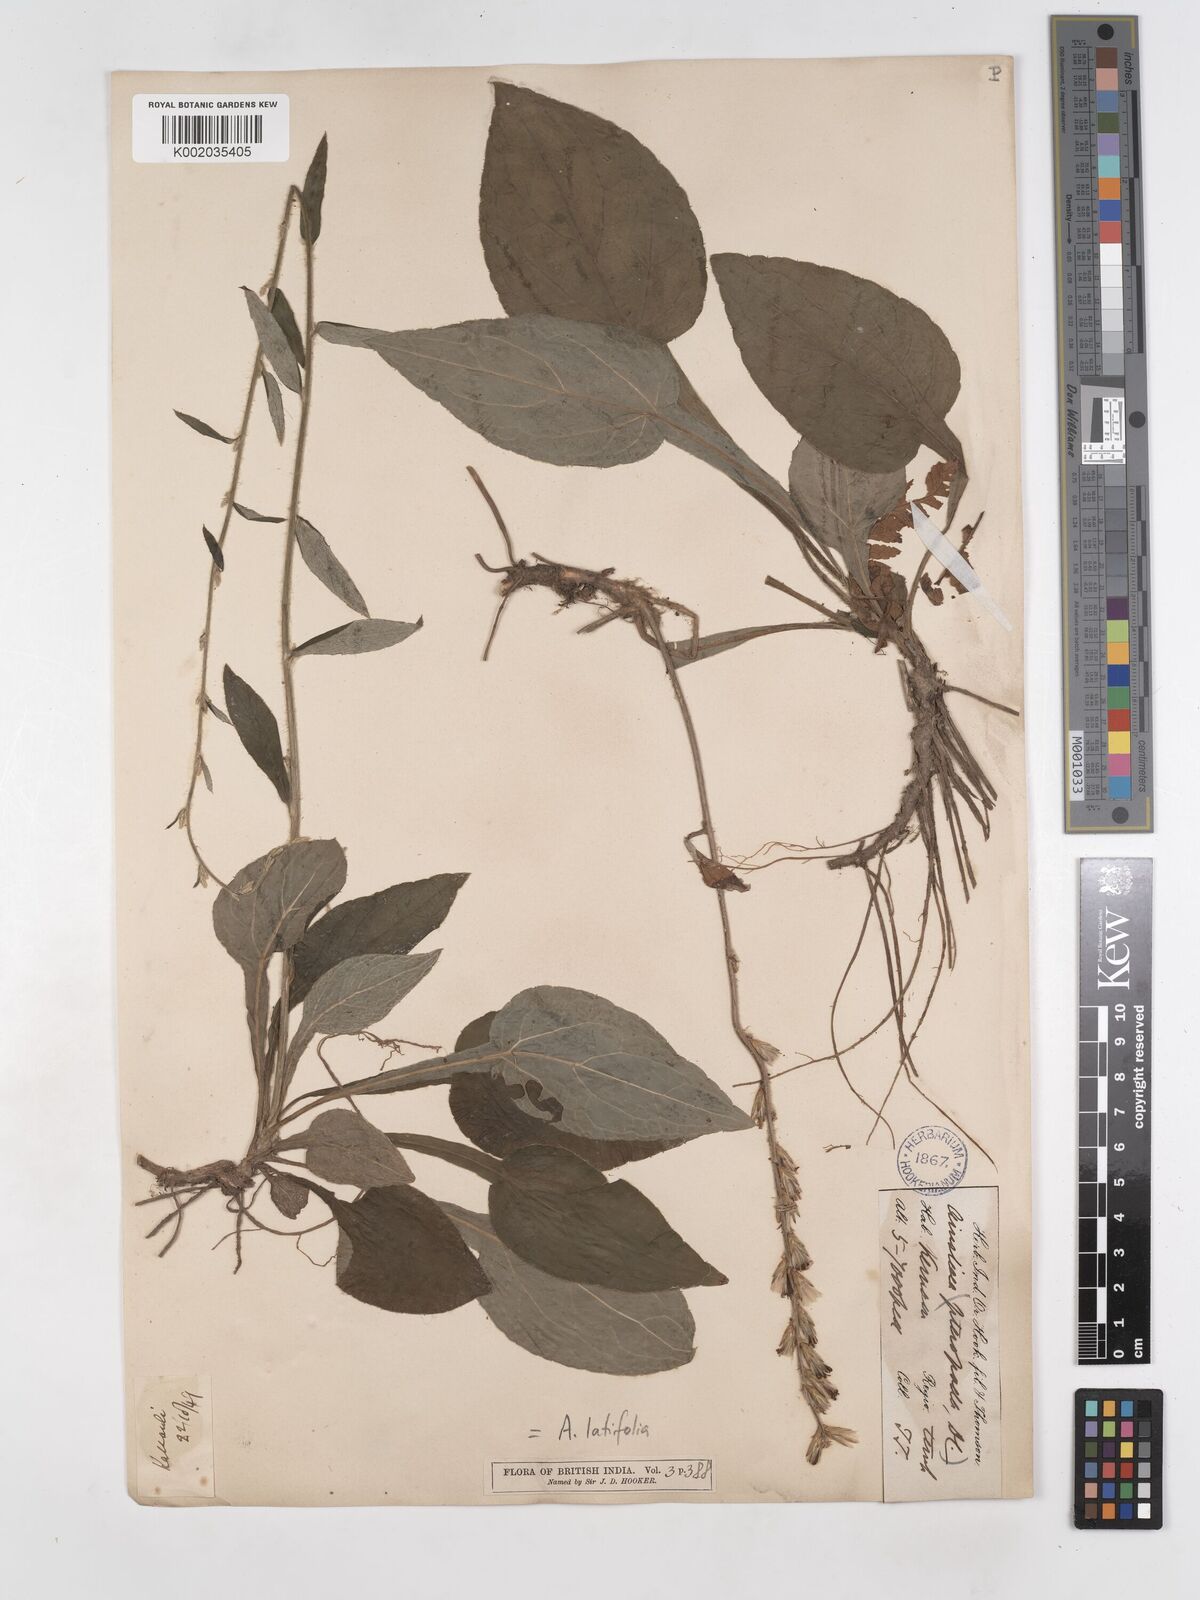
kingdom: Plantae
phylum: Tracheophyta
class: Magnoliopsida
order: Asterales
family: Asteraceae
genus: Ainsliaea
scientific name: Ainsliaea latifolia
